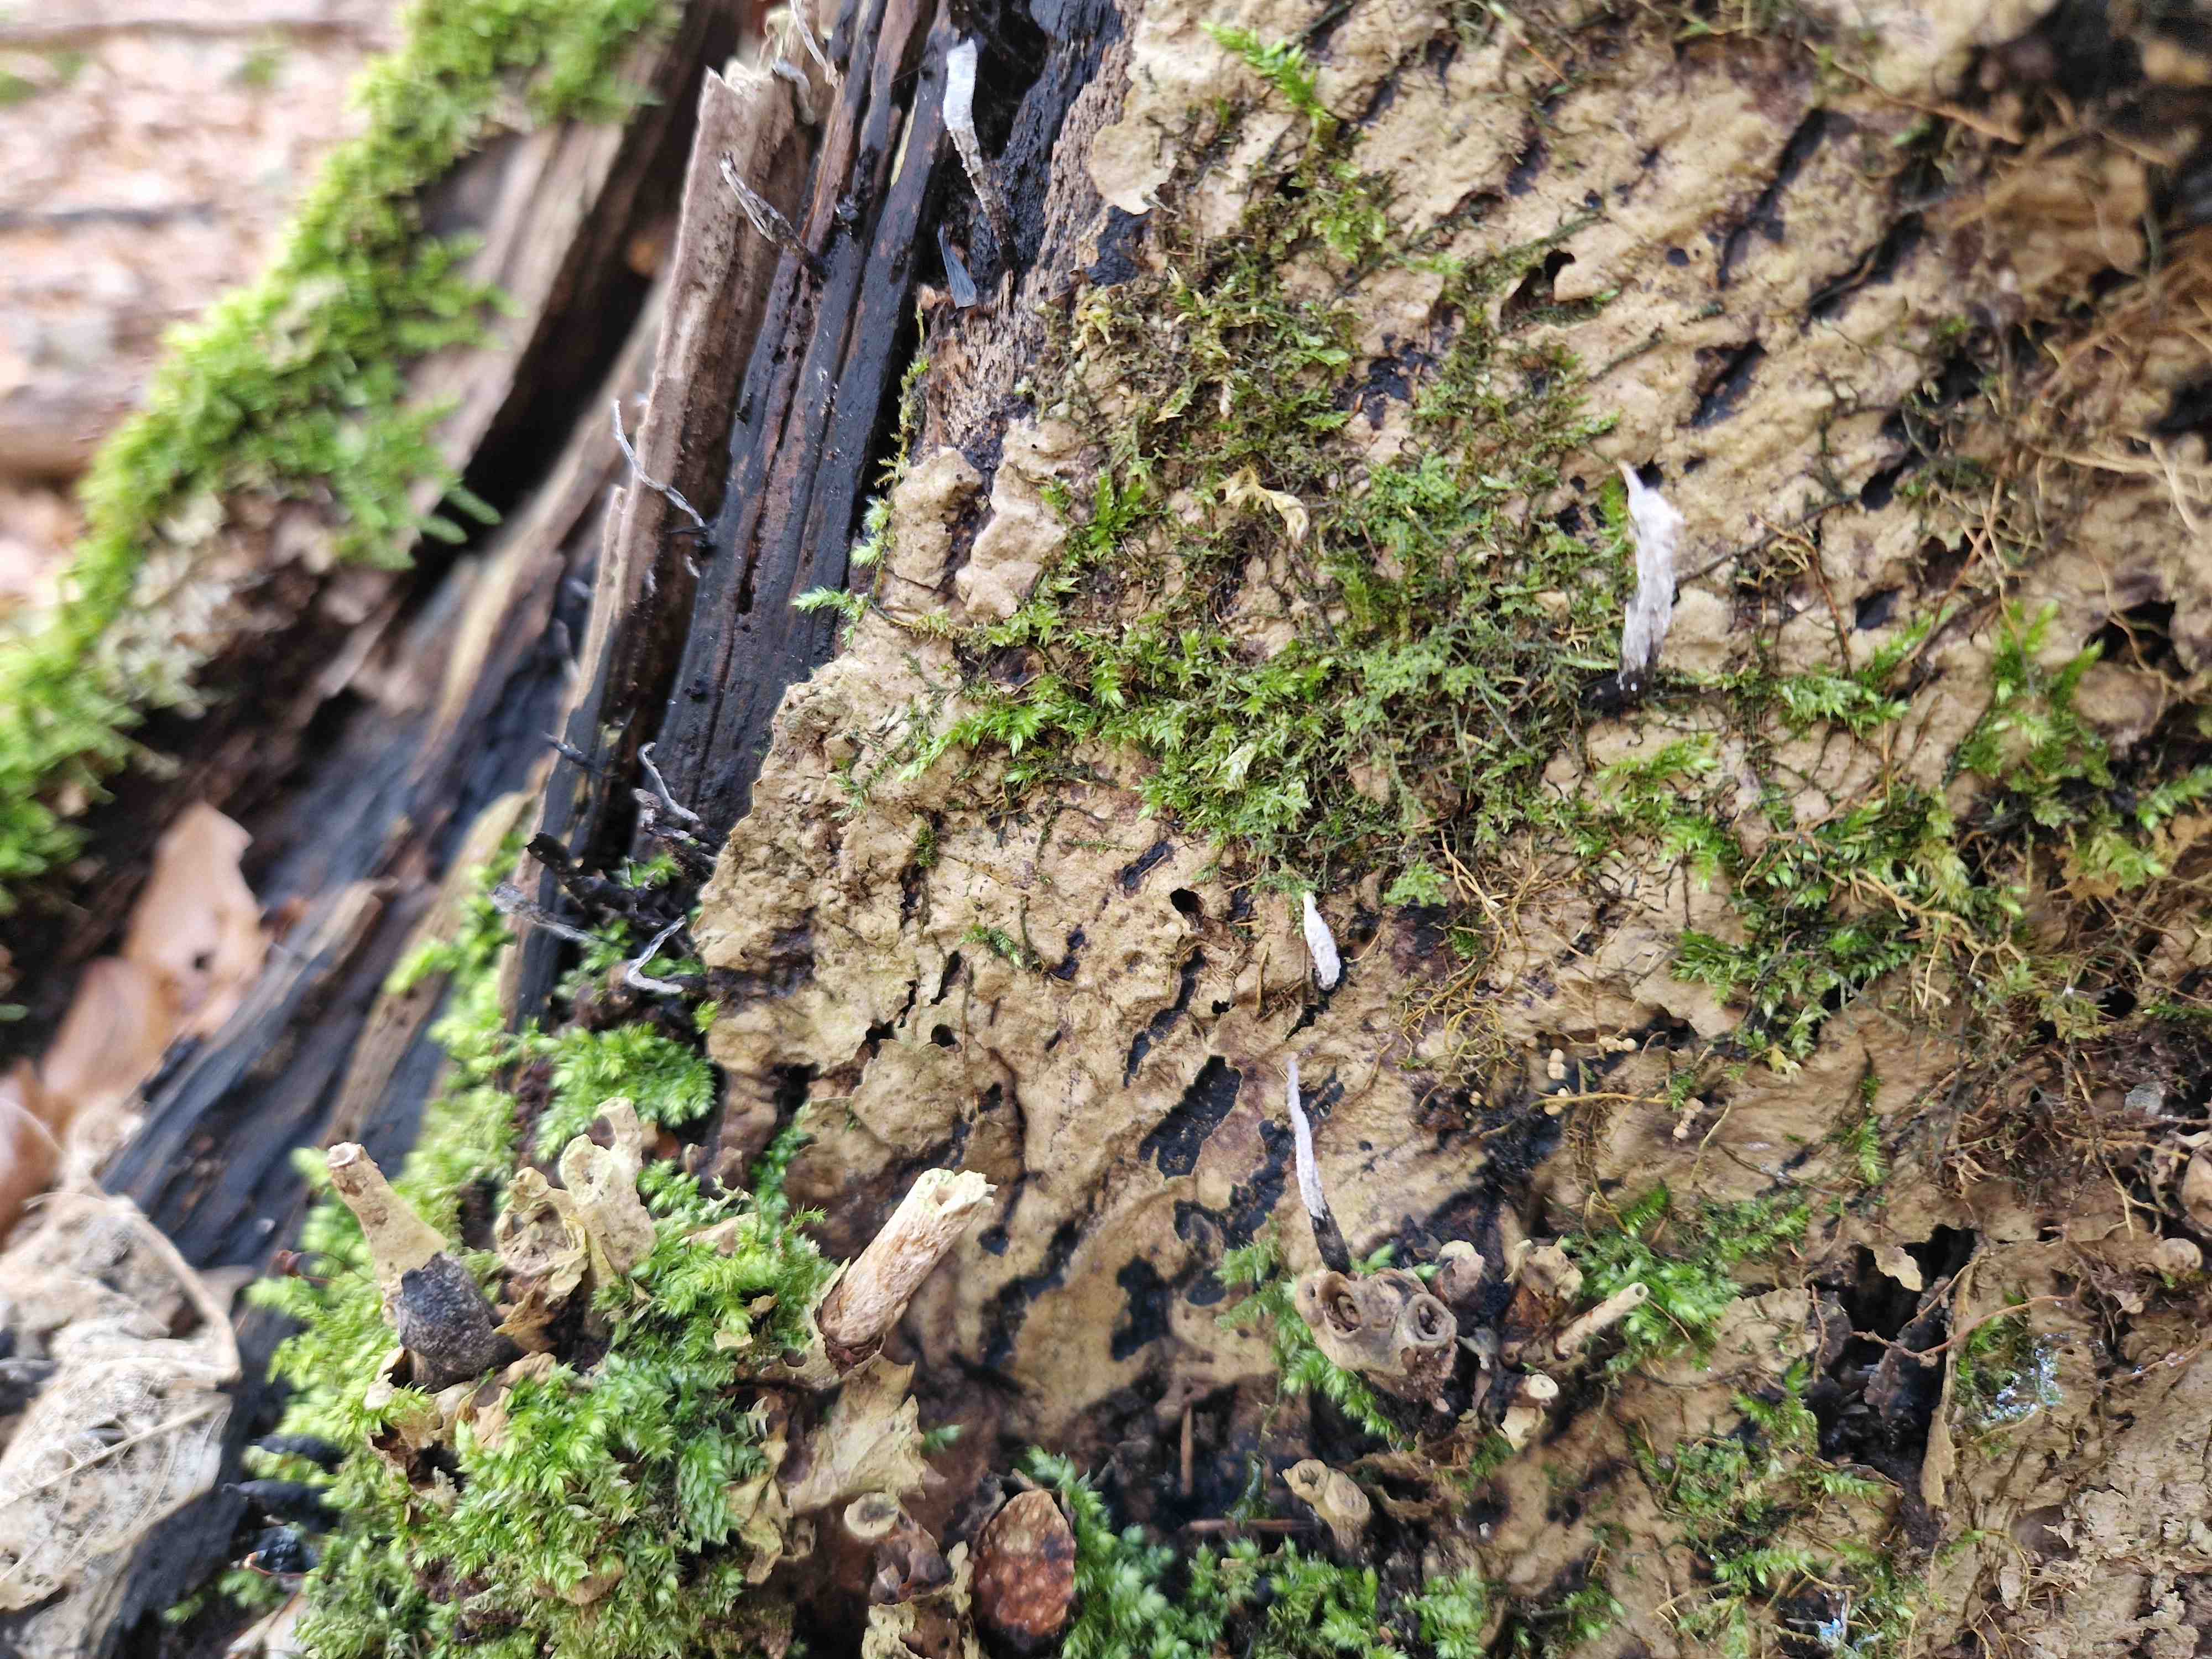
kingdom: Fungi
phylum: Ascomycota
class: Sordariomycetes
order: Xylariales
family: Xylariaceae
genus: Xylaria
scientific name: Xylaria hypoxylon
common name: grenet stødsvamp
